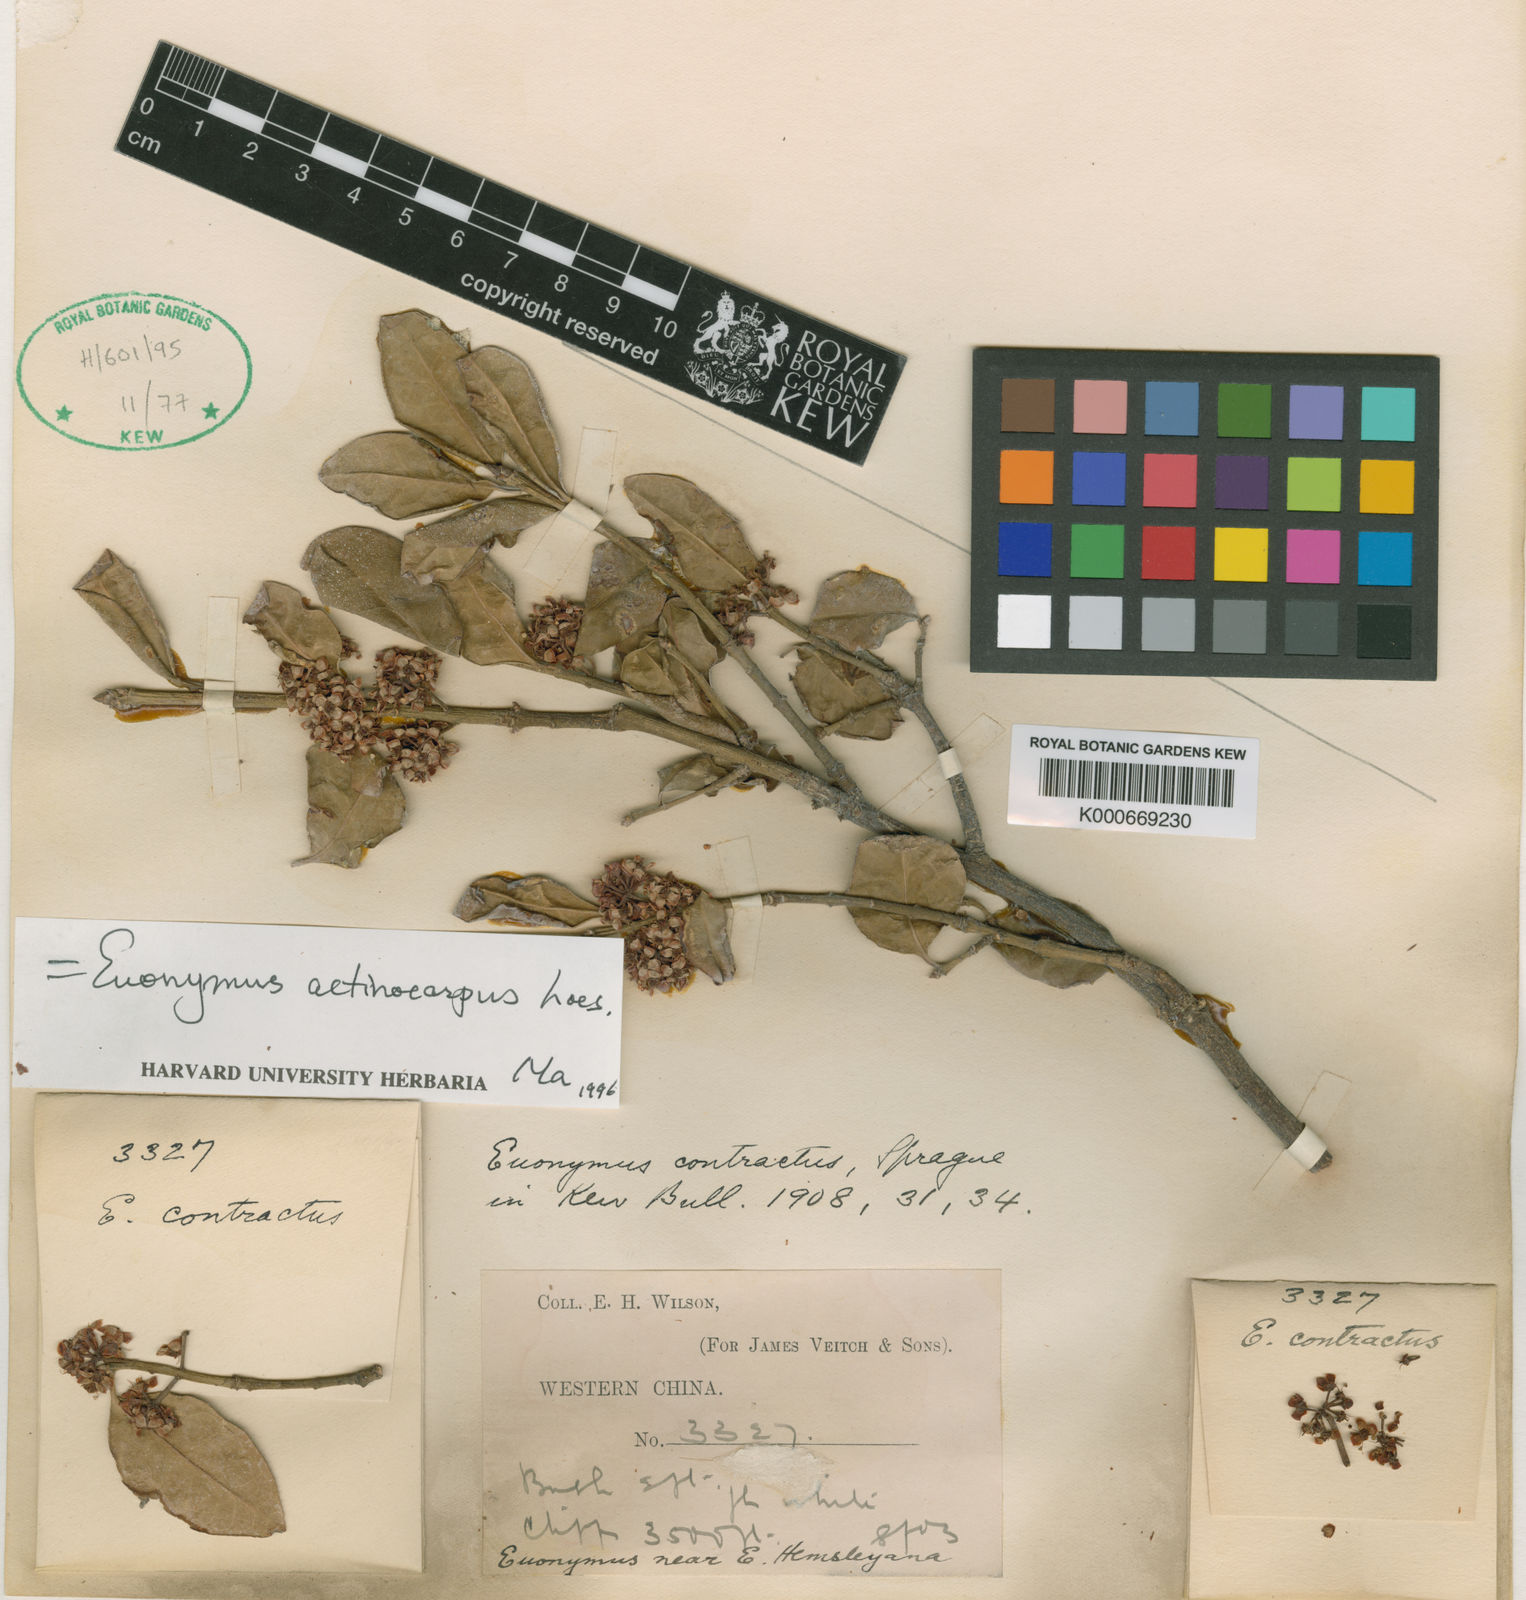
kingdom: Plantae
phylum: Tracheophyta
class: Magnoliopsida
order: Celastrales
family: Celastraceae
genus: Euonymus
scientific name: Euonymus actinocarpus
